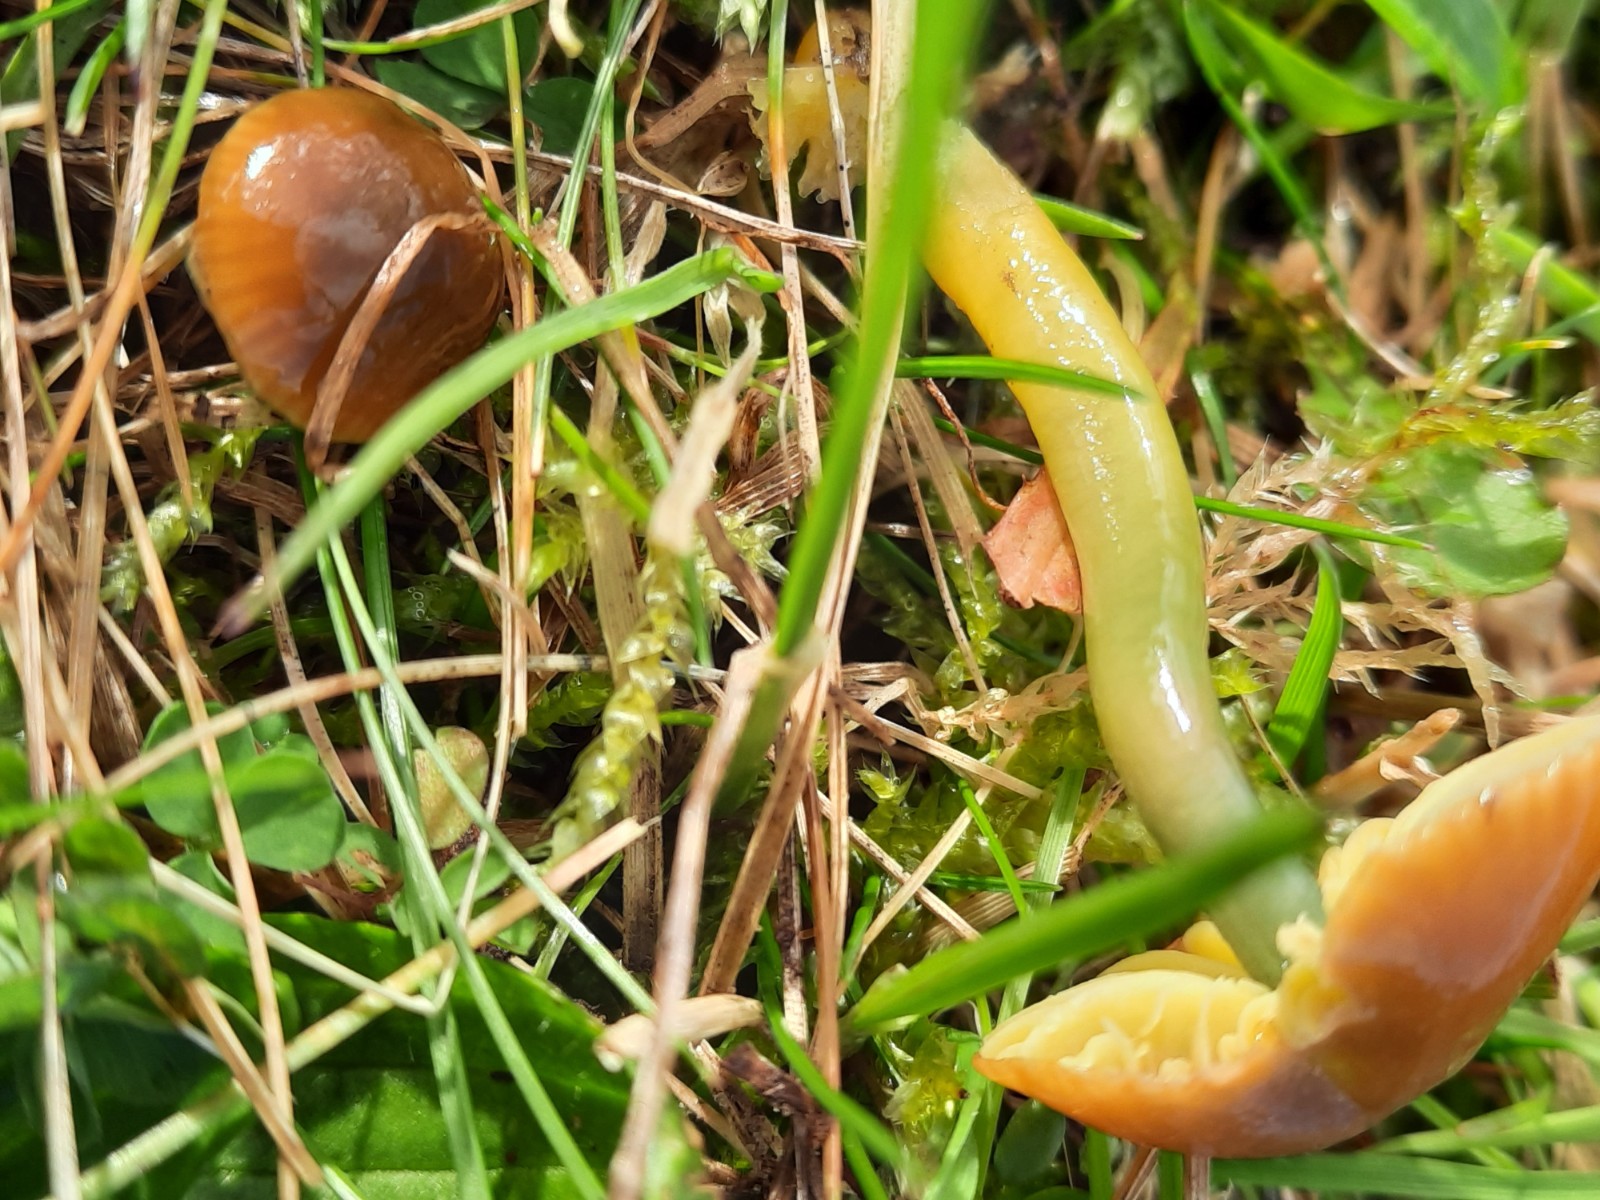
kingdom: Fungi
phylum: Basidiomycota
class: Agaricomycetes
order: Agaricales
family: Hygrophoraceae
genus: Gliophorus
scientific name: Gliophorus psittacinus
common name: papegøje-vokshat
